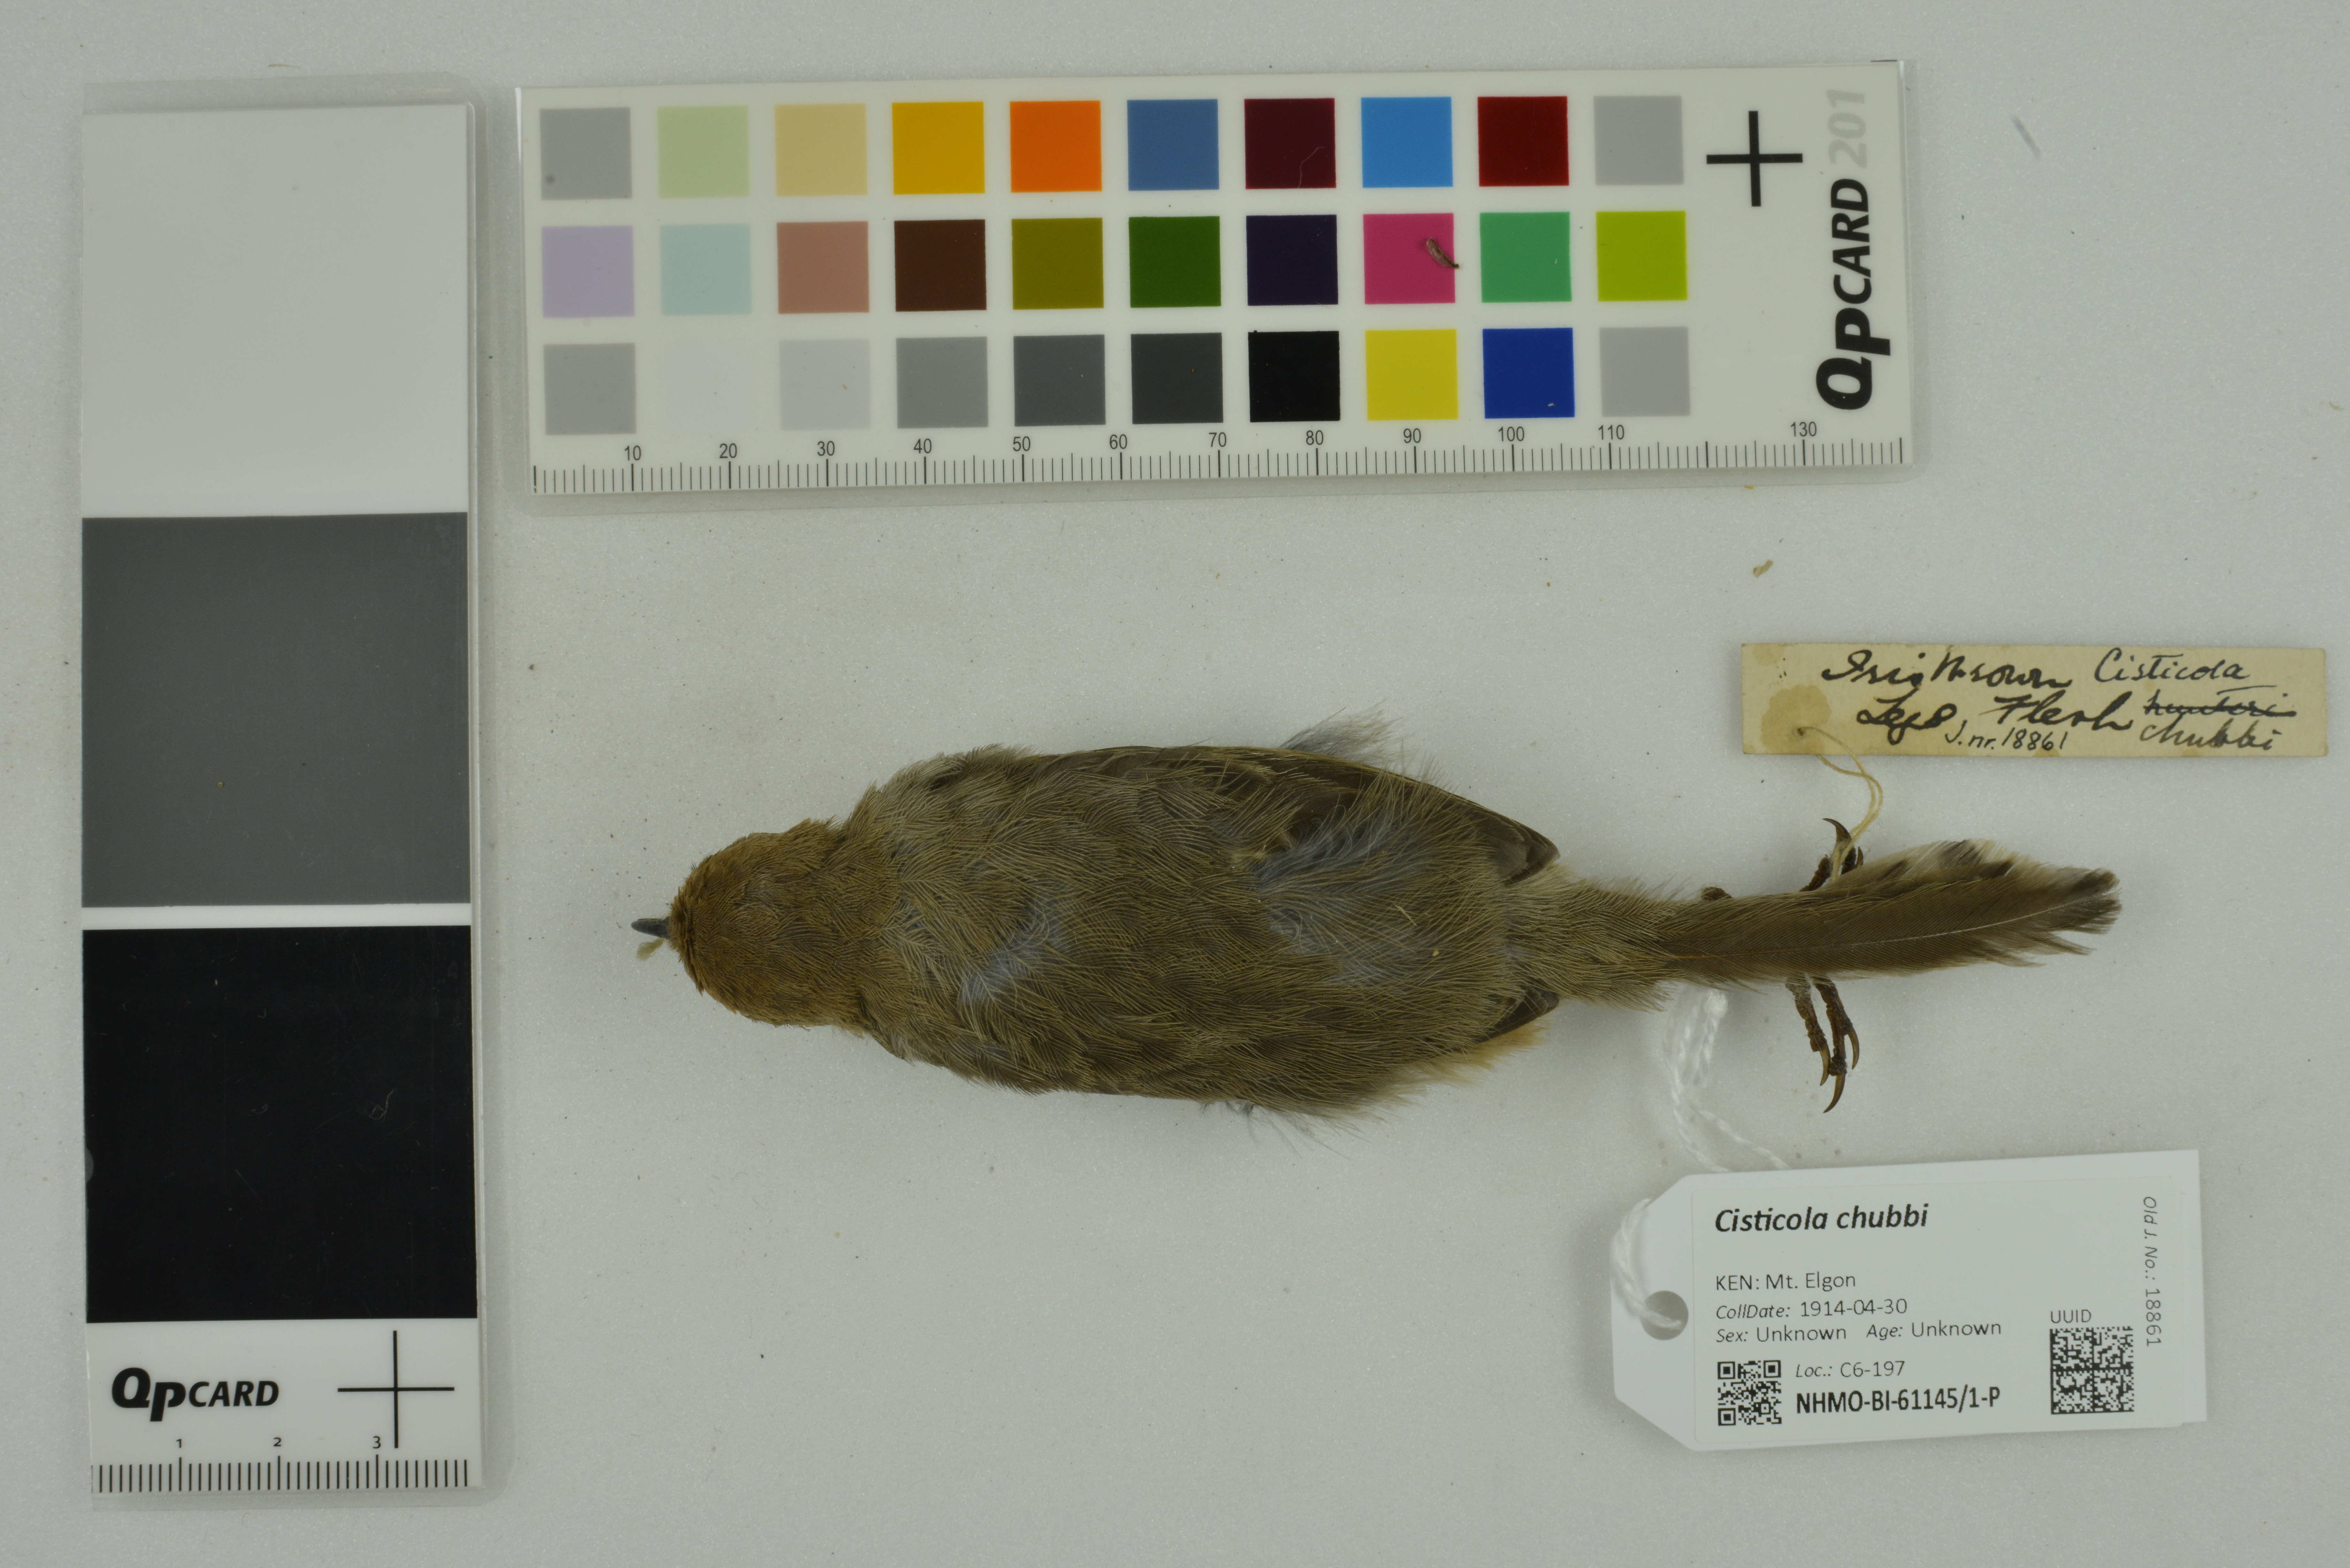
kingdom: Animalia
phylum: Chordata
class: Aves
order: Passeriformes
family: Cisticolidae
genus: Cisticola
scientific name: Cisticola chubbi
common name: Chubb's cisticola
